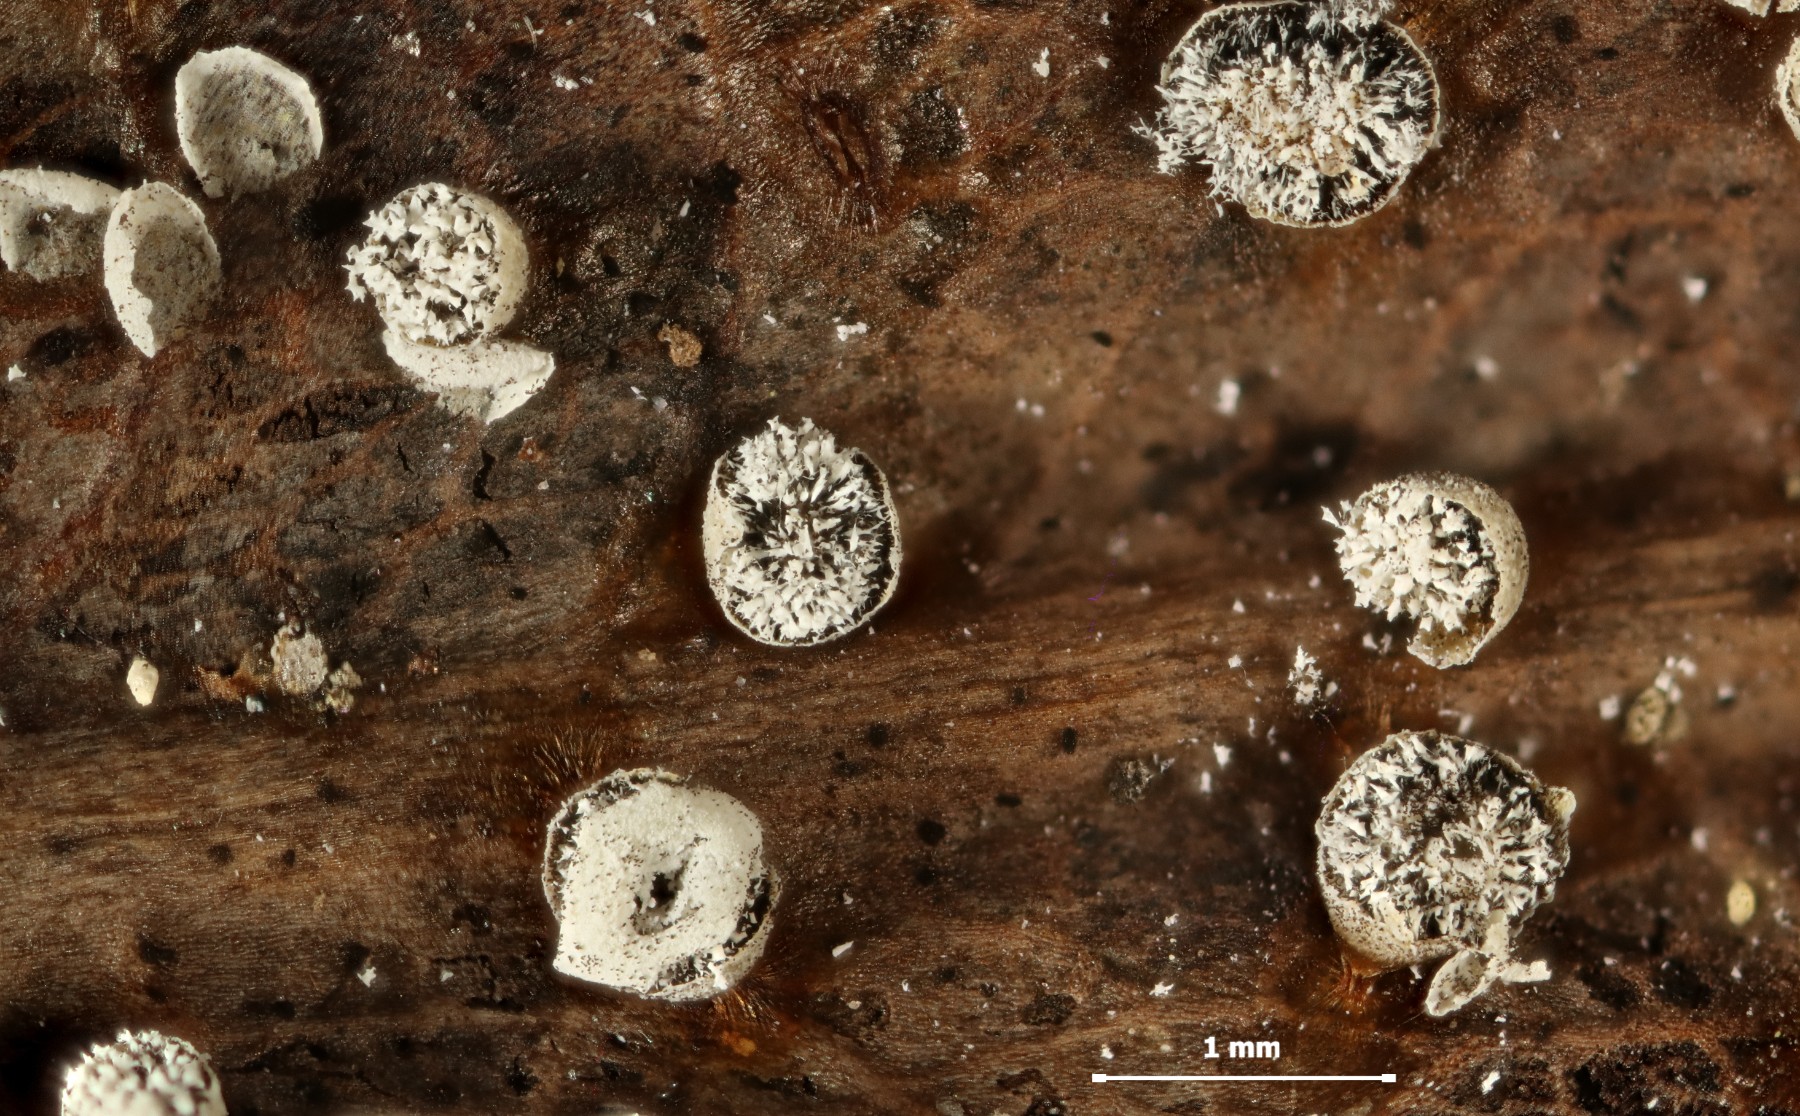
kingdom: Protozoa
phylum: Mycetozoa
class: Myxomycetes
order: Physarales
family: Physaraceae
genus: Craterium
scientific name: Craterium leucocephalum
